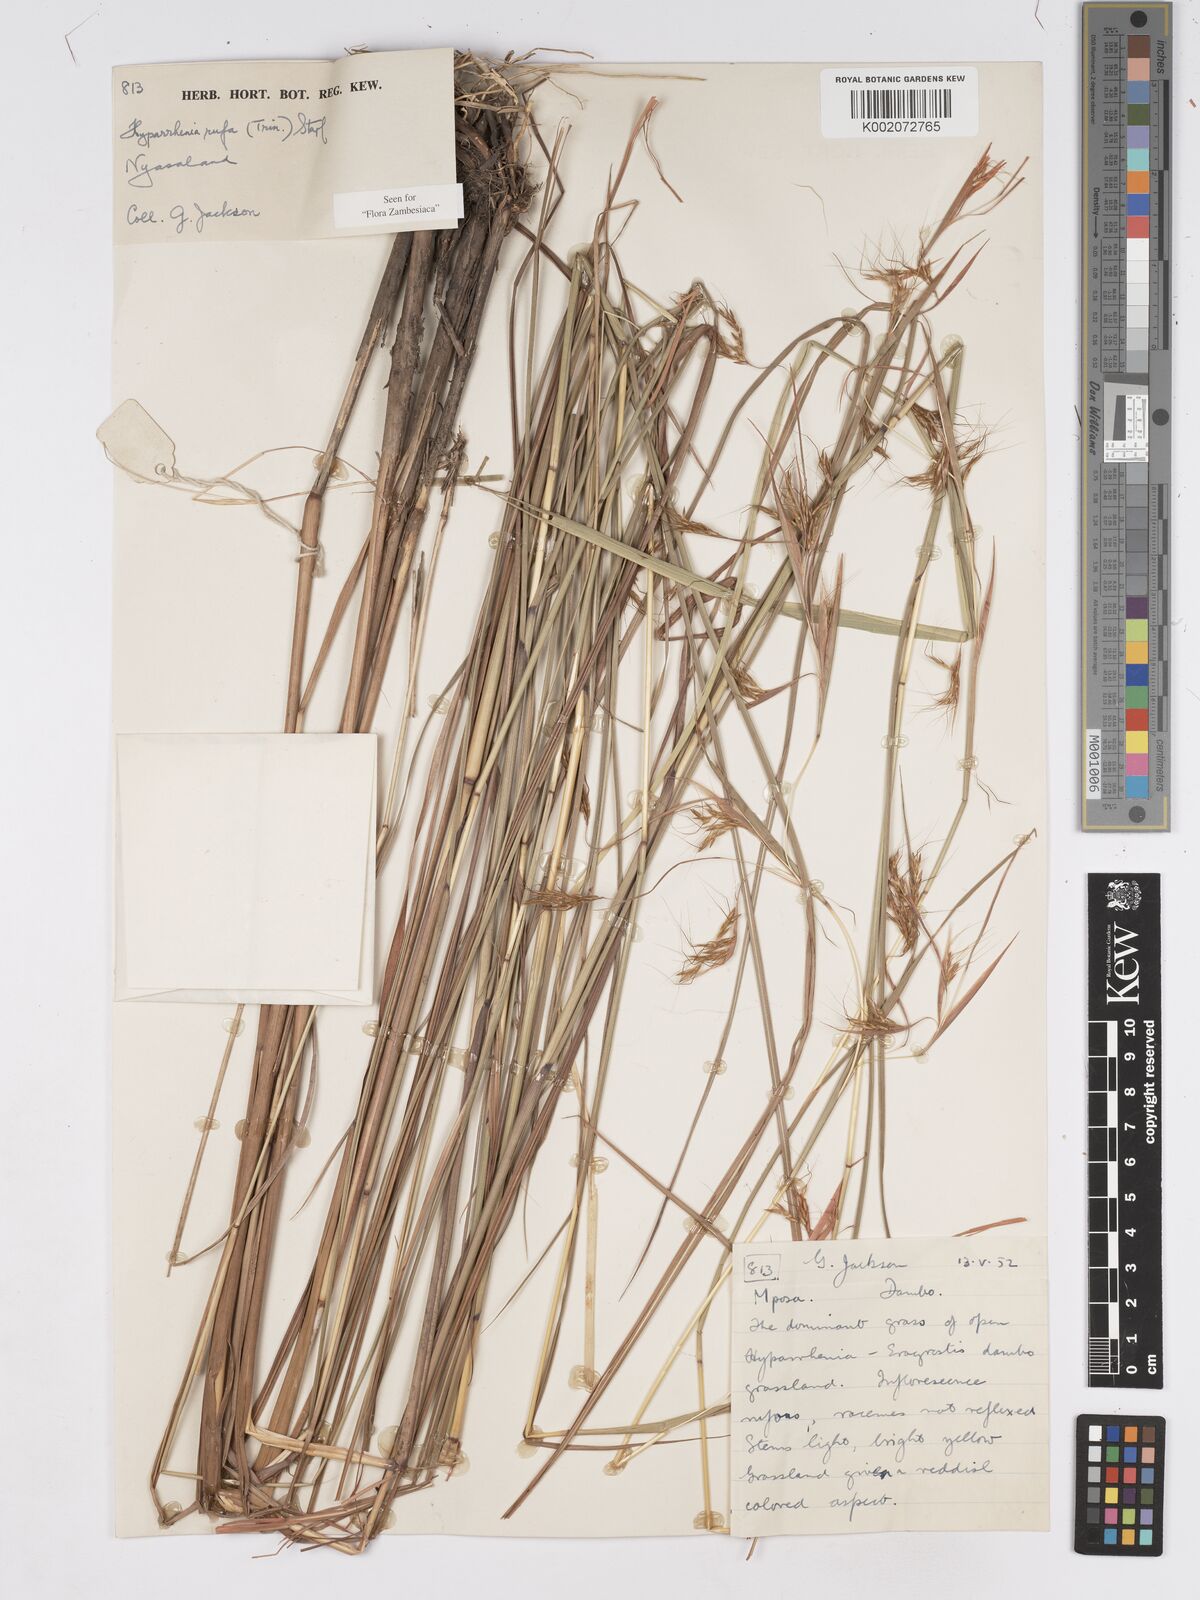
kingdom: Plantae
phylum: Tracheophyta
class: Liliopsida
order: Poales
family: Poaceae
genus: Hyparrhenia
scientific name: Hyparrhenia rufa
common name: Jaraguagrass
